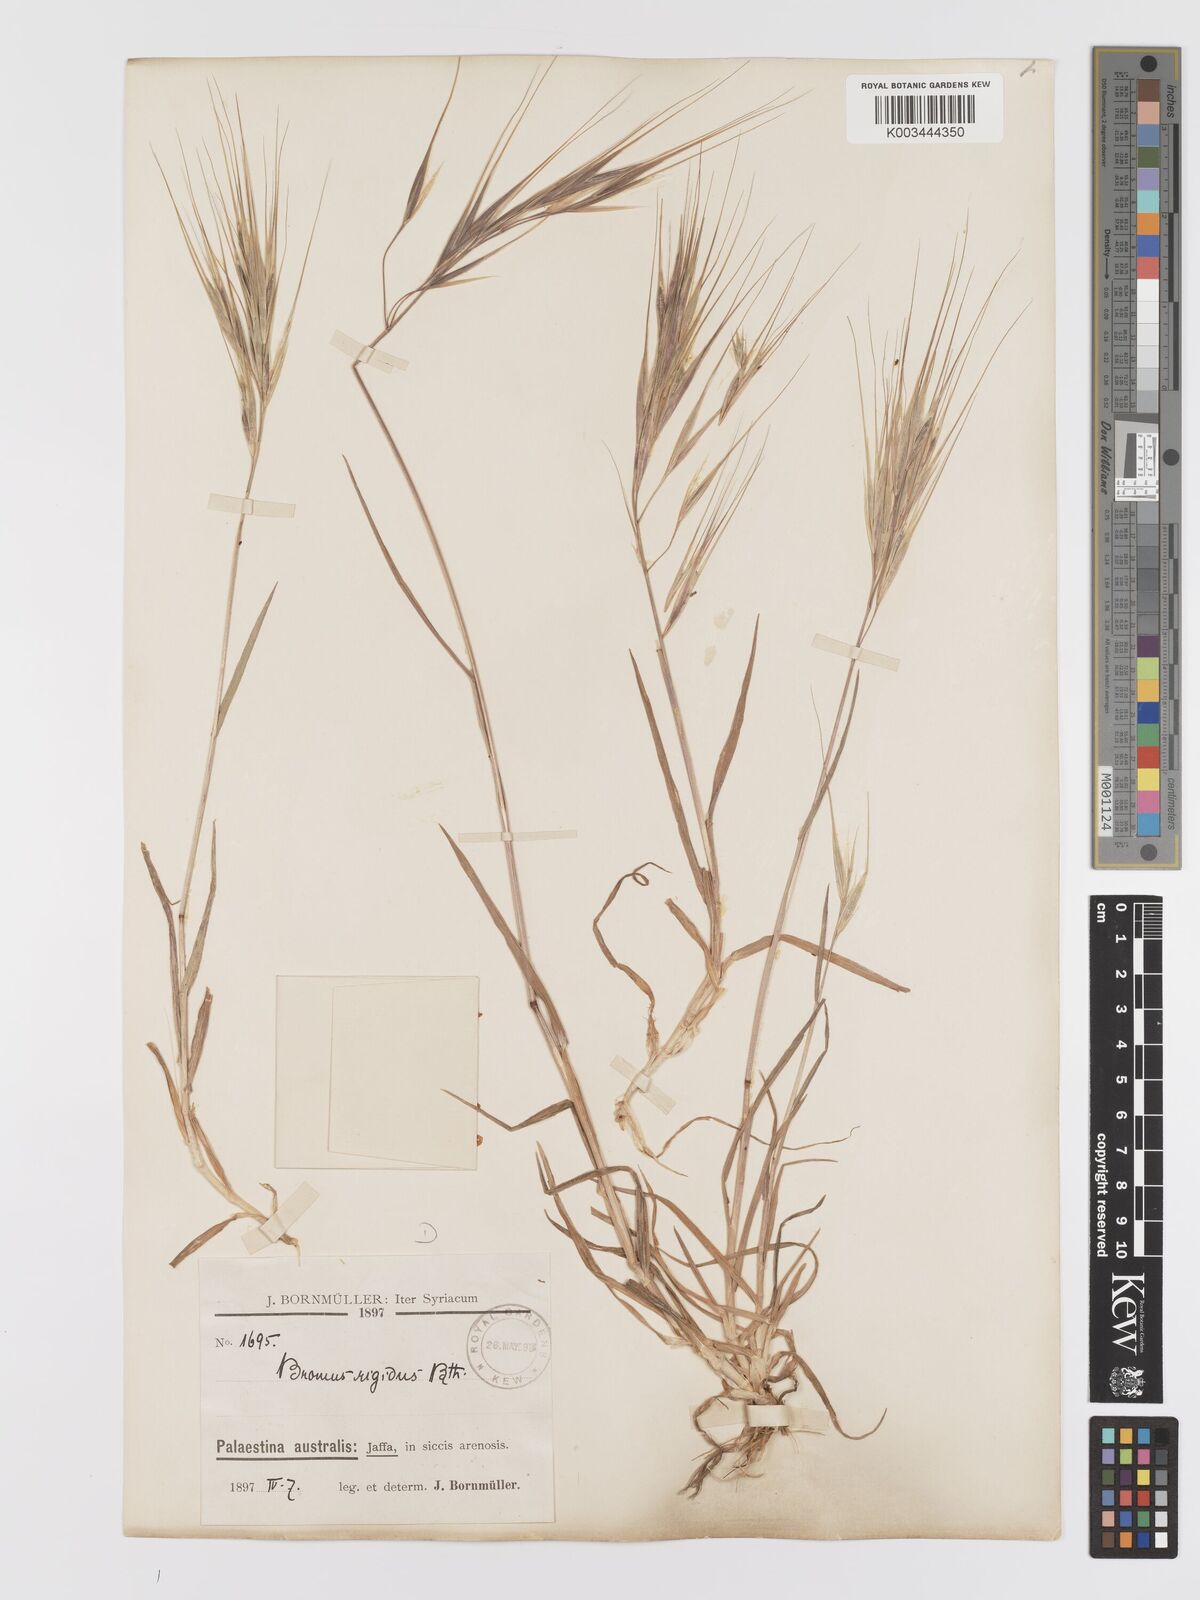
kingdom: Plantae
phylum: Tracheophyta
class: Liliopsida
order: Poales
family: Poaceae
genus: Bromus
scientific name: Bromus diandrus
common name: Ripgut brome
